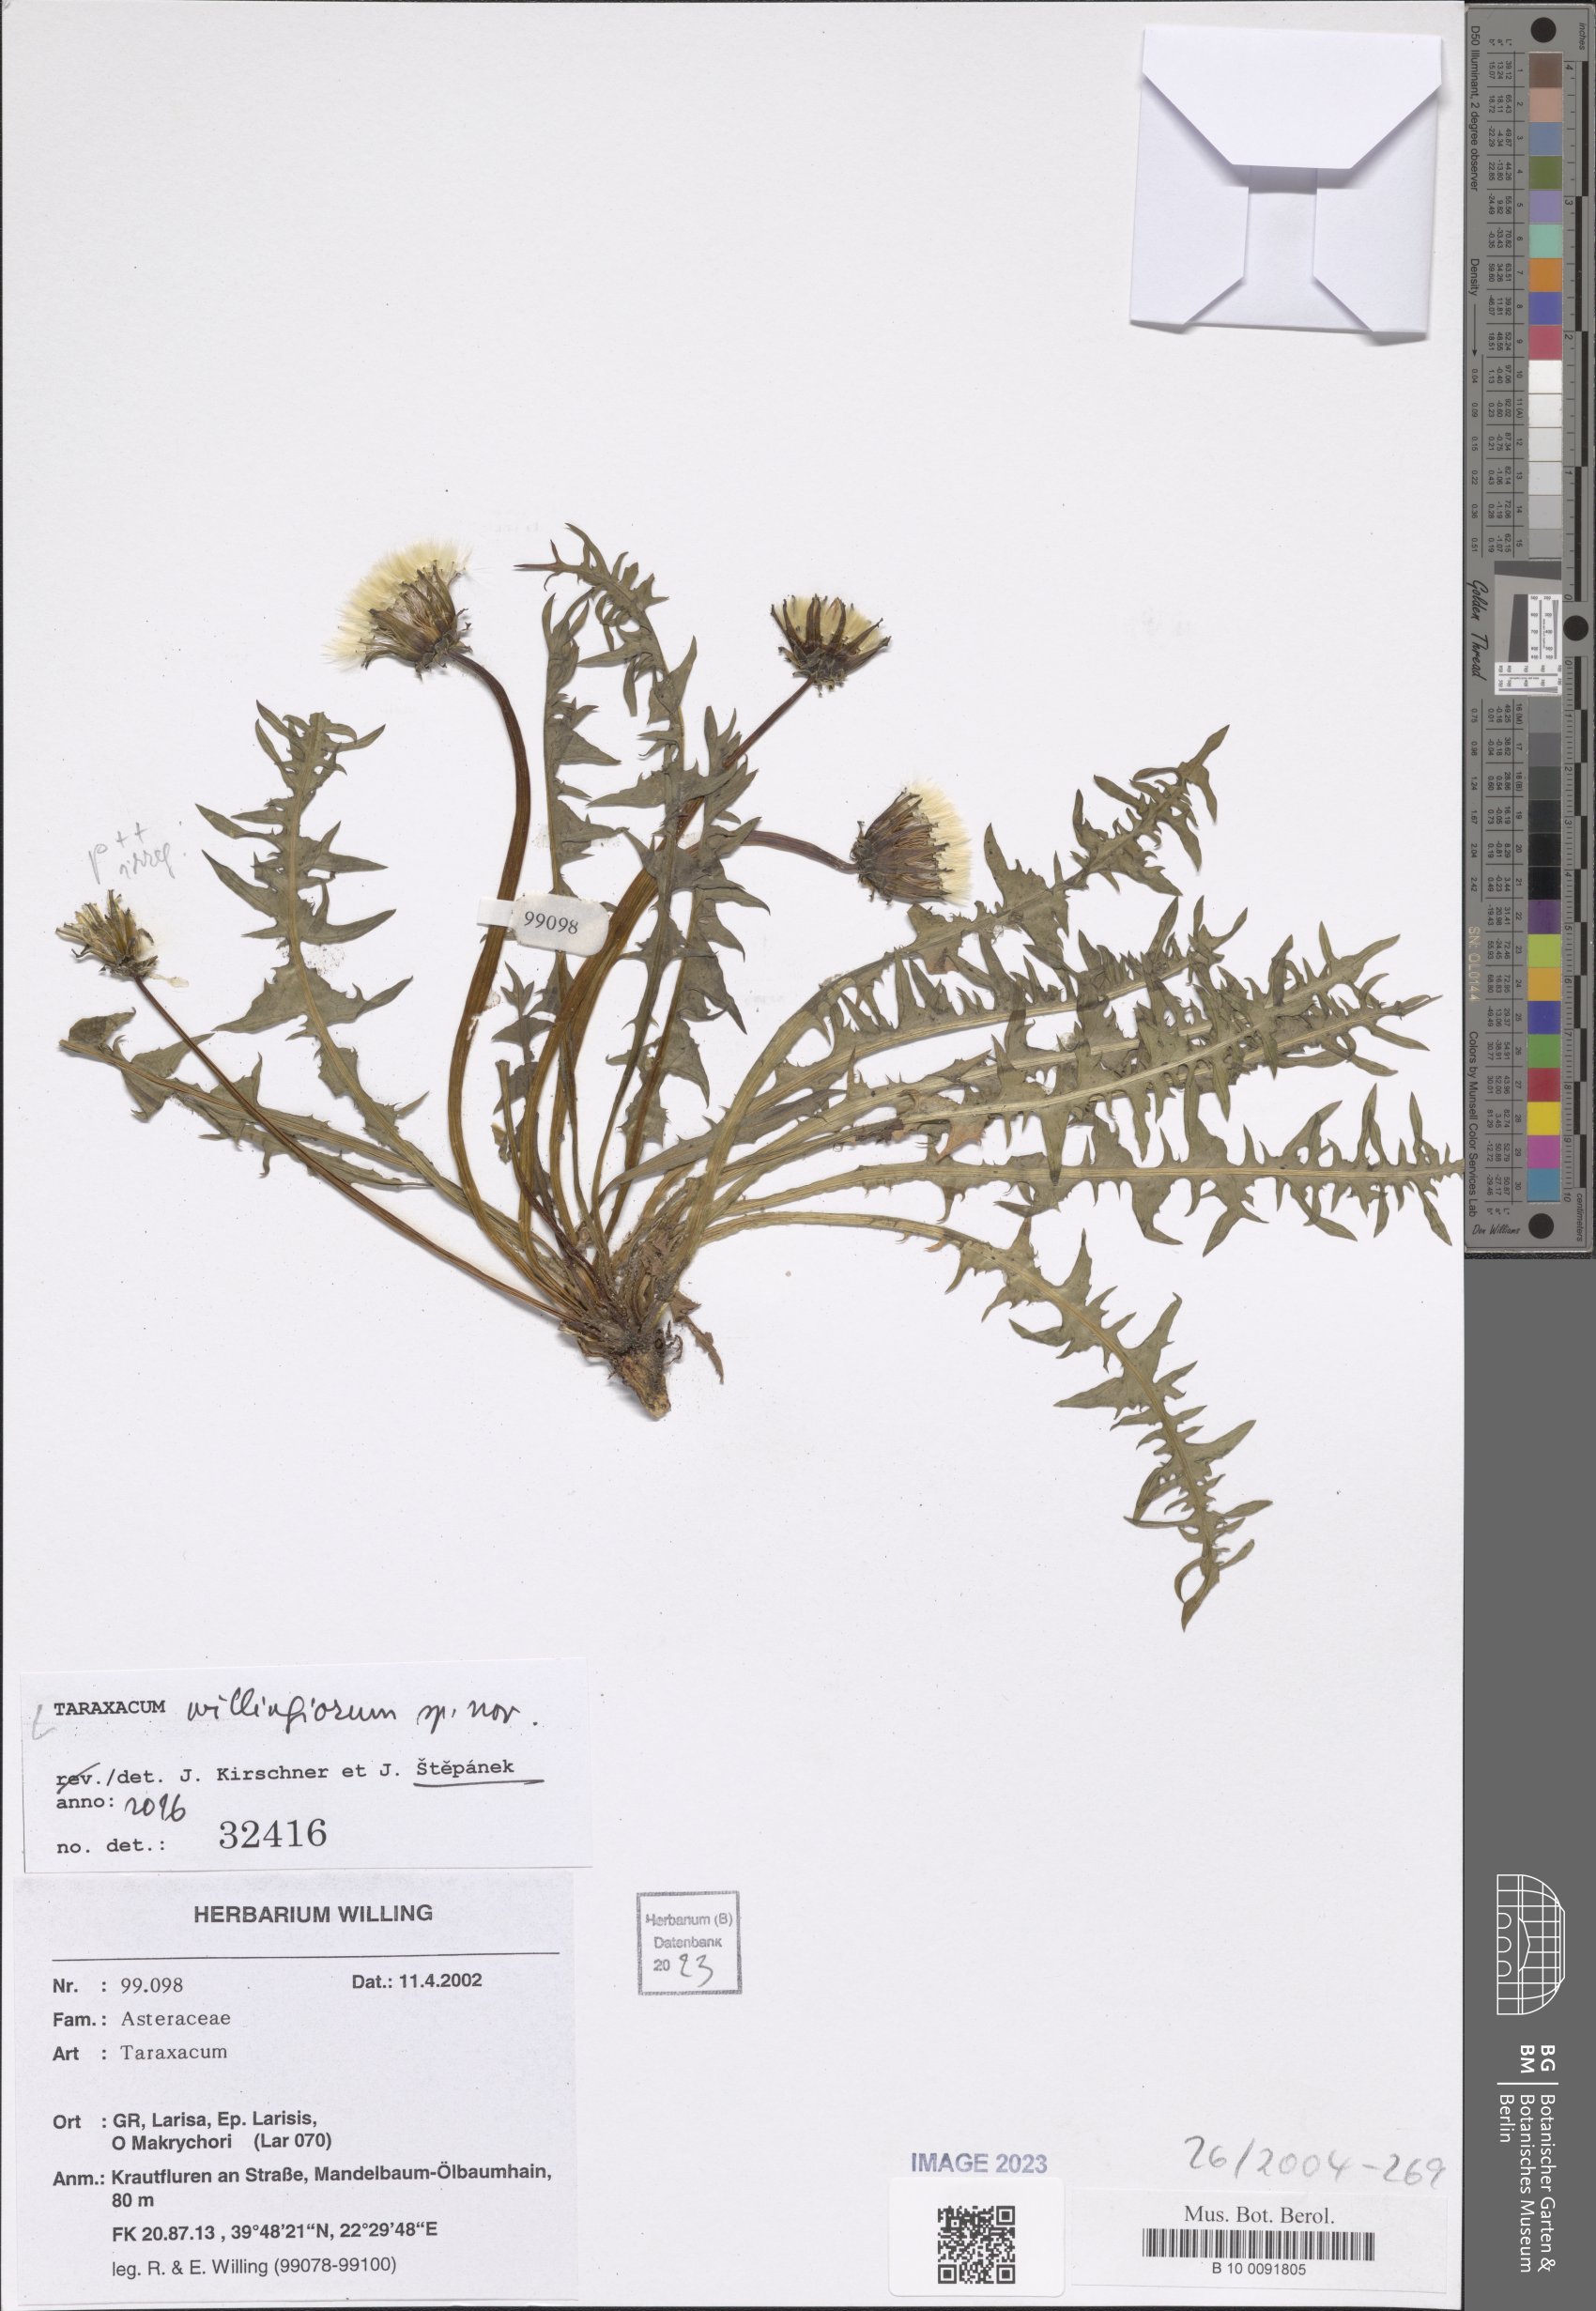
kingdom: Plantae
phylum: Tracheophyta
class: Magnoliopsida
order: Asterales
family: Asteraceae
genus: Taraxacum
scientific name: Taraxacum
